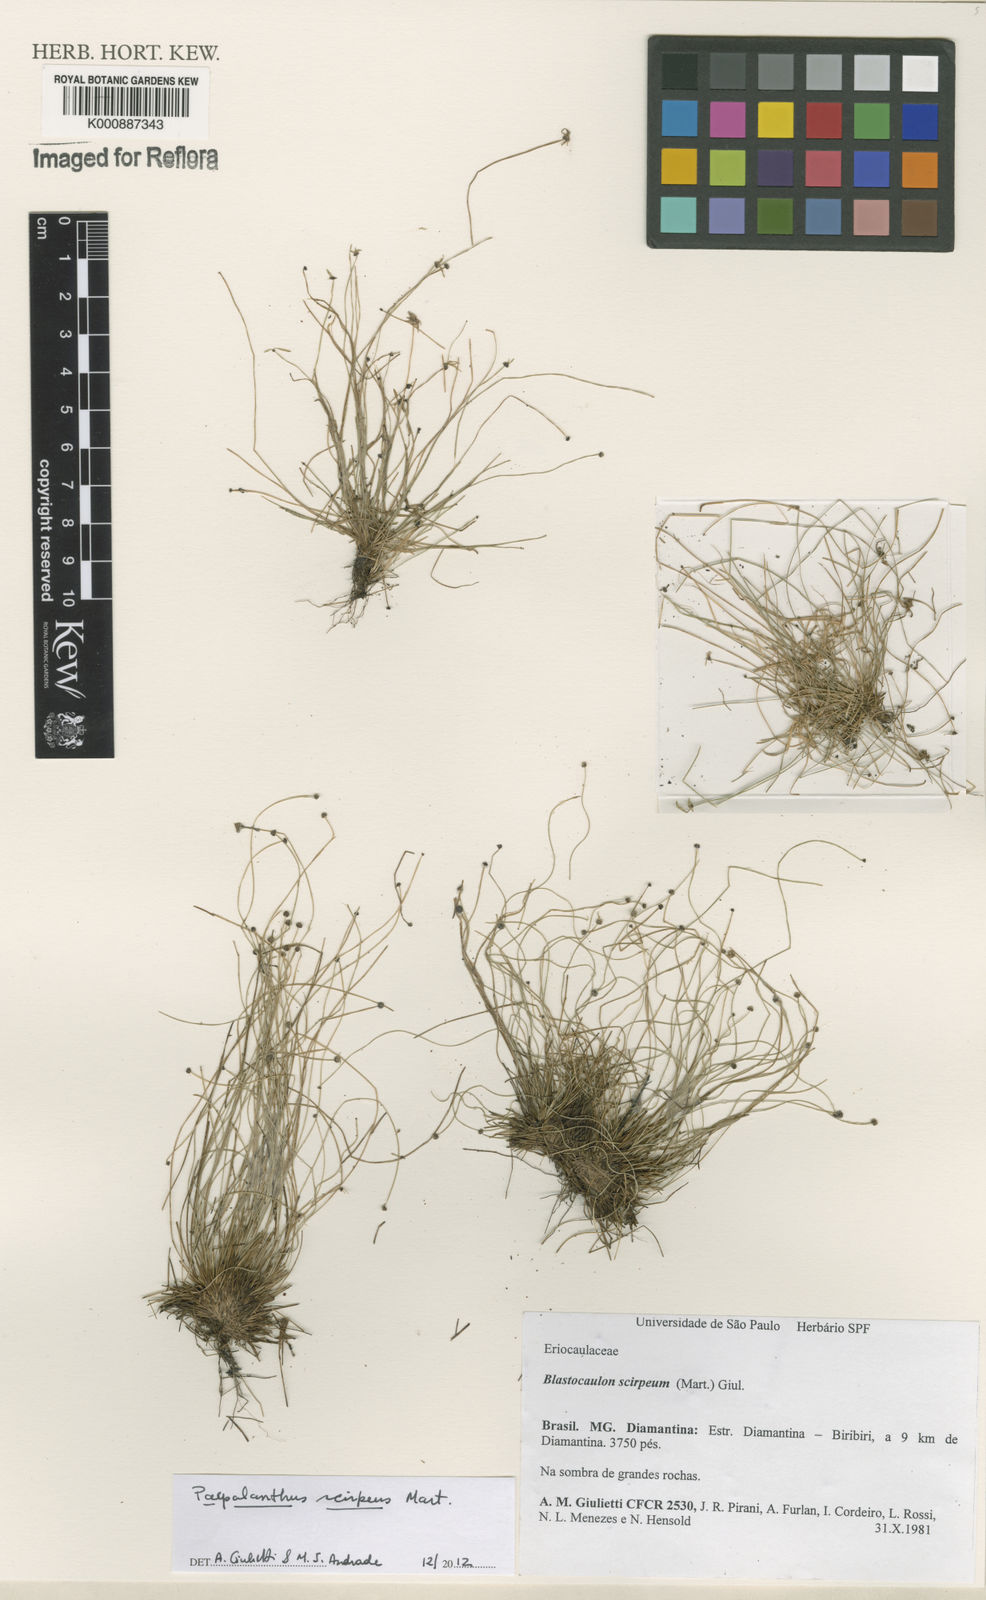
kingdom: Plantae
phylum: Tracheophyta
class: Liliopsida
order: Poales
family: Eriocaulaceae
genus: Paepalanthus
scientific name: Paepalanthus scirpeus
